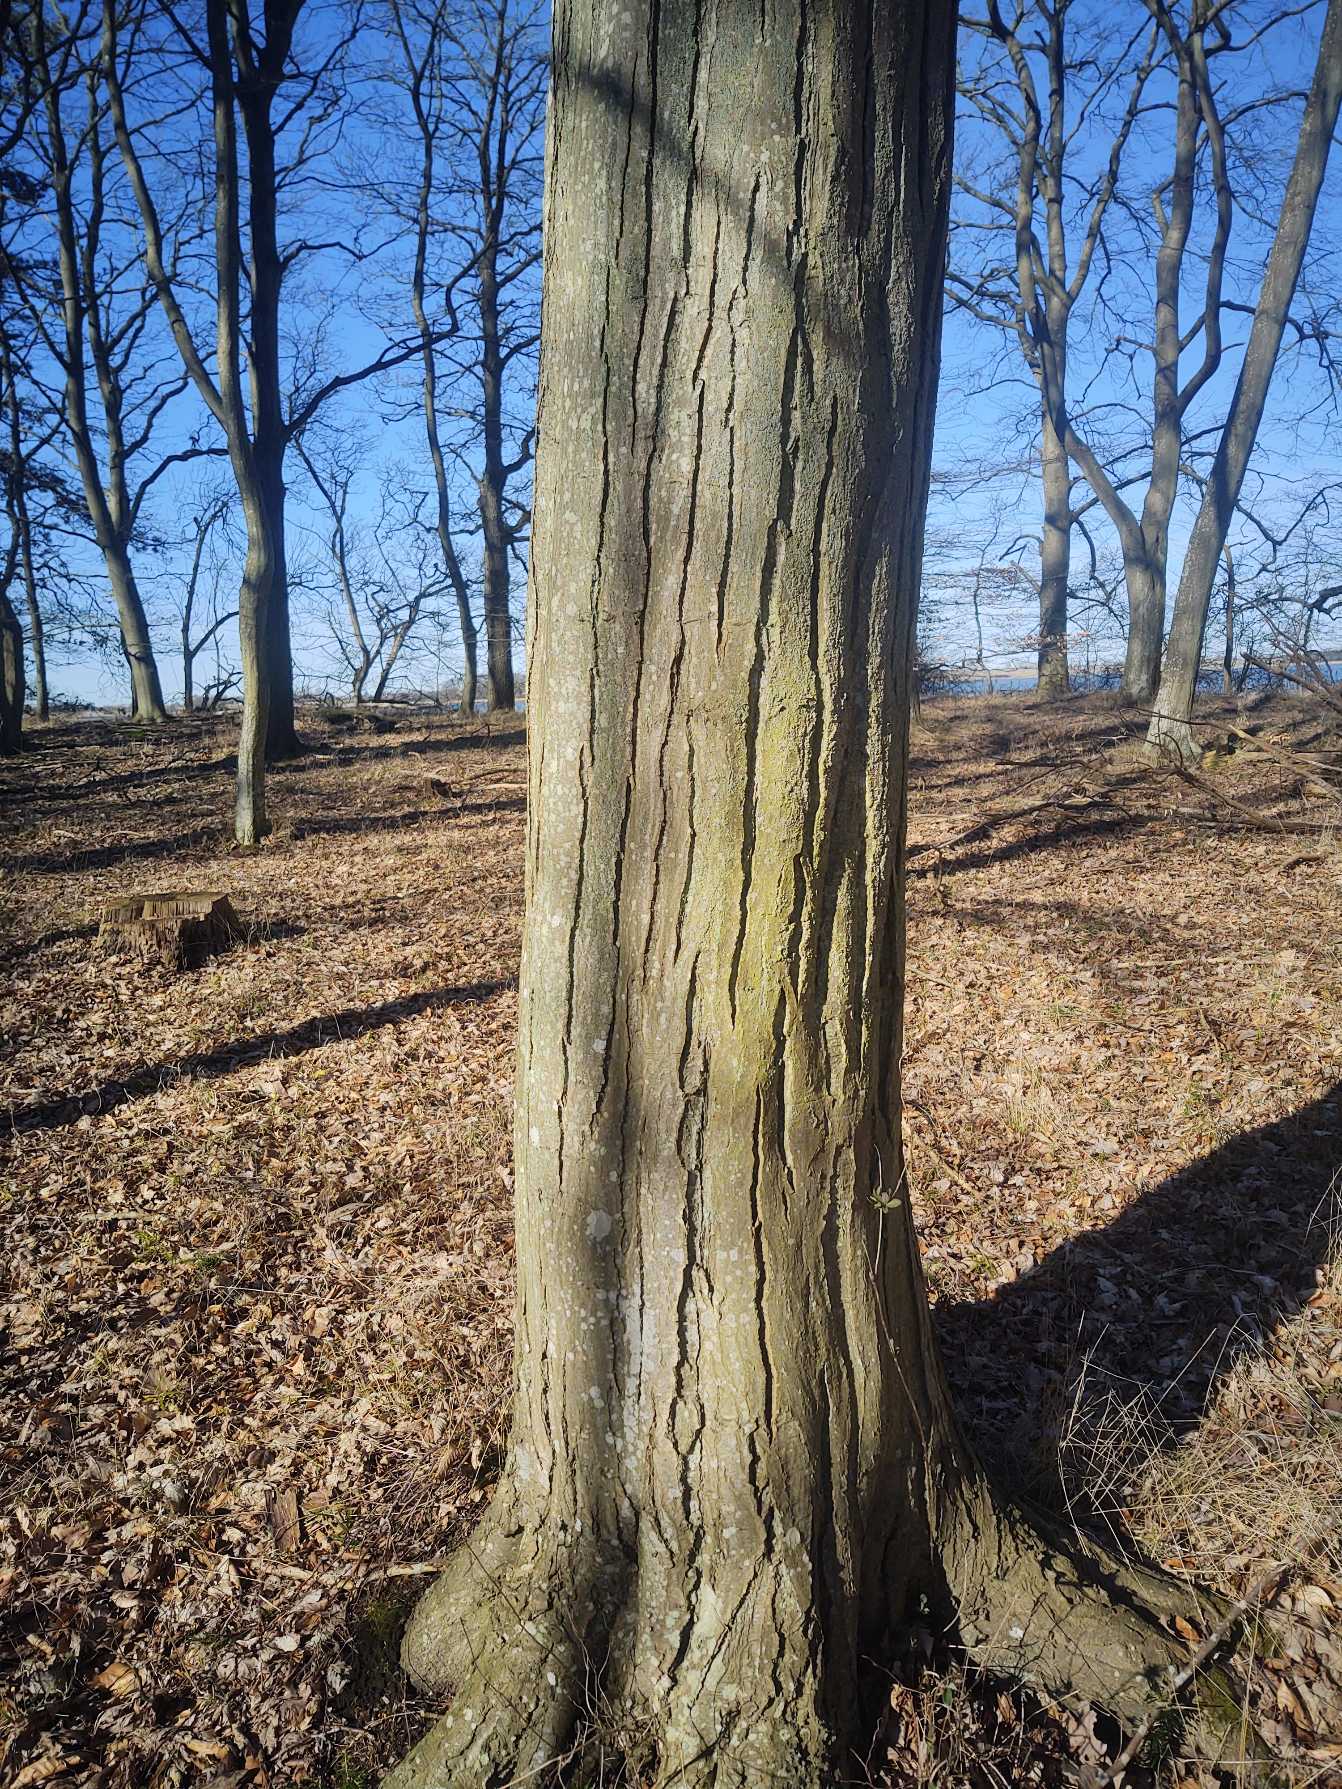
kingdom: Plantae
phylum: Tracheophyta
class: Magnoliopsida
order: Fagales
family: Betulaceae
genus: Carpinus
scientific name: Carpinus betulus
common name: Avnbøg
